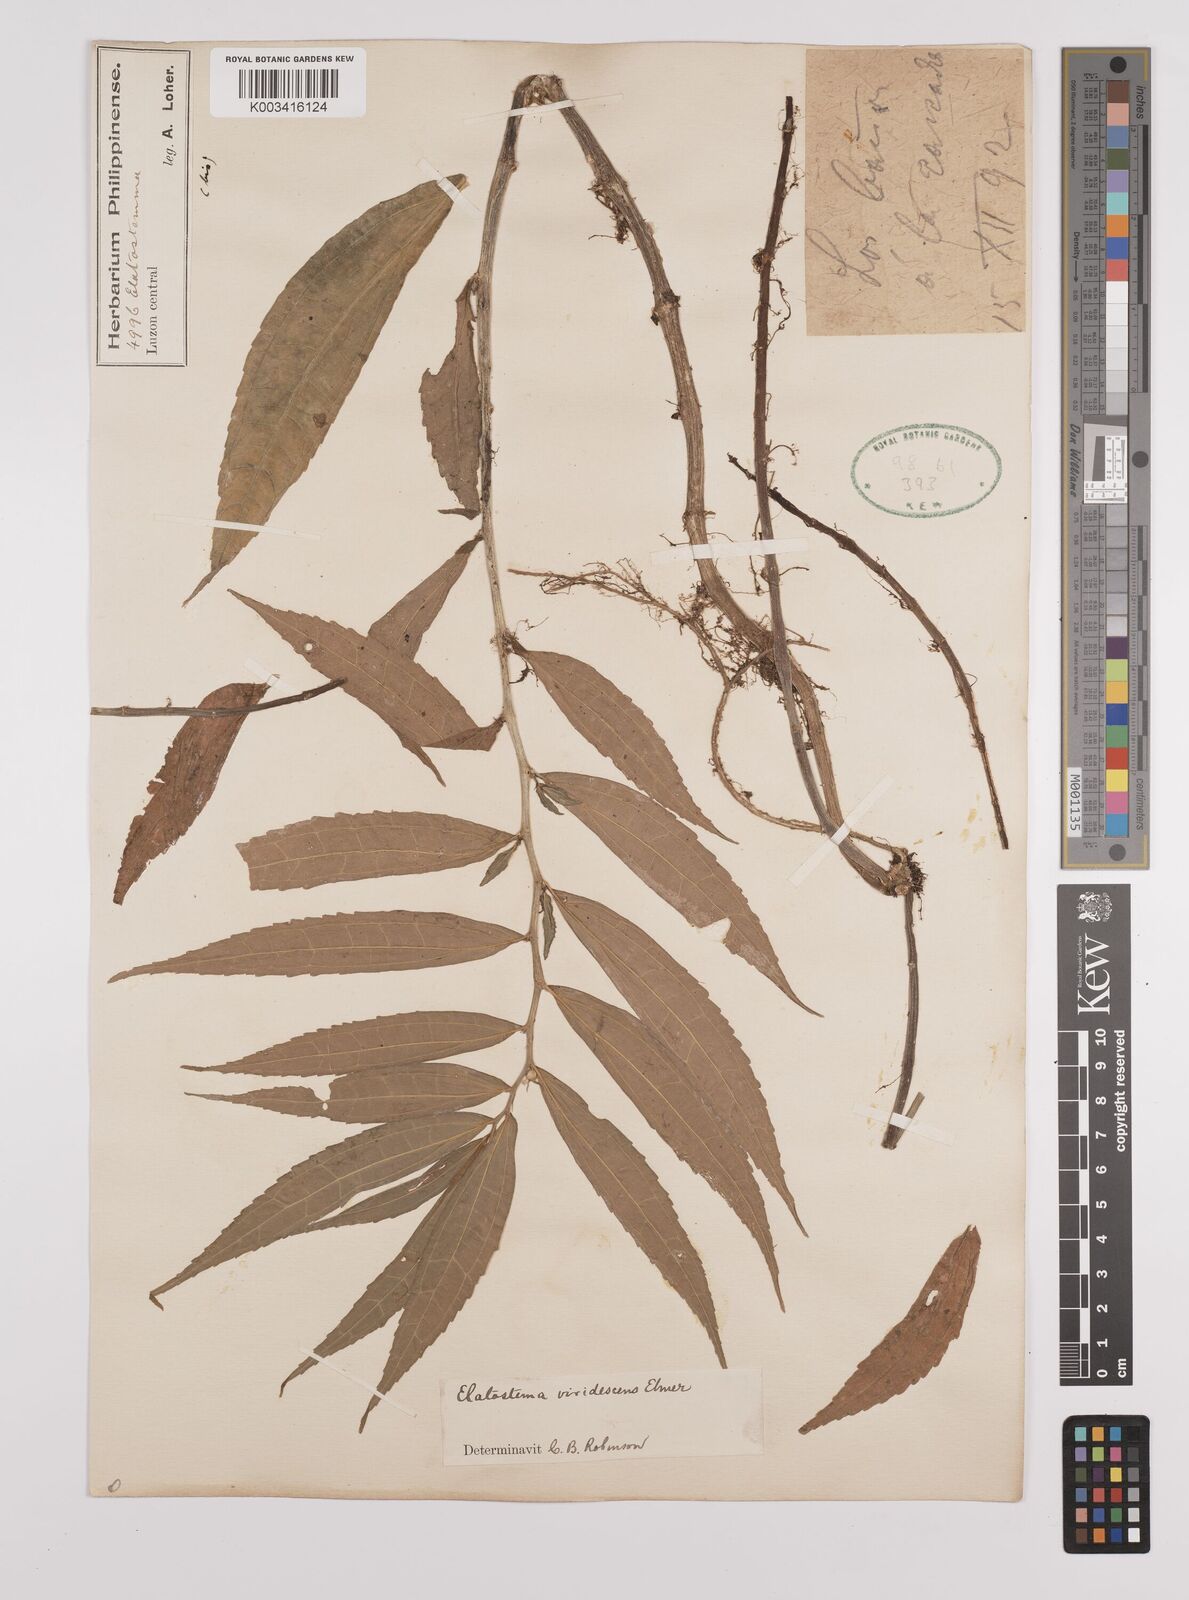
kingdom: Plantae
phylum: Tracheophyta
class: Magnoliopsida
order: Rosales
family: Urticaceae
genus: Elatostema
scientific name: Elatostema viridescens
